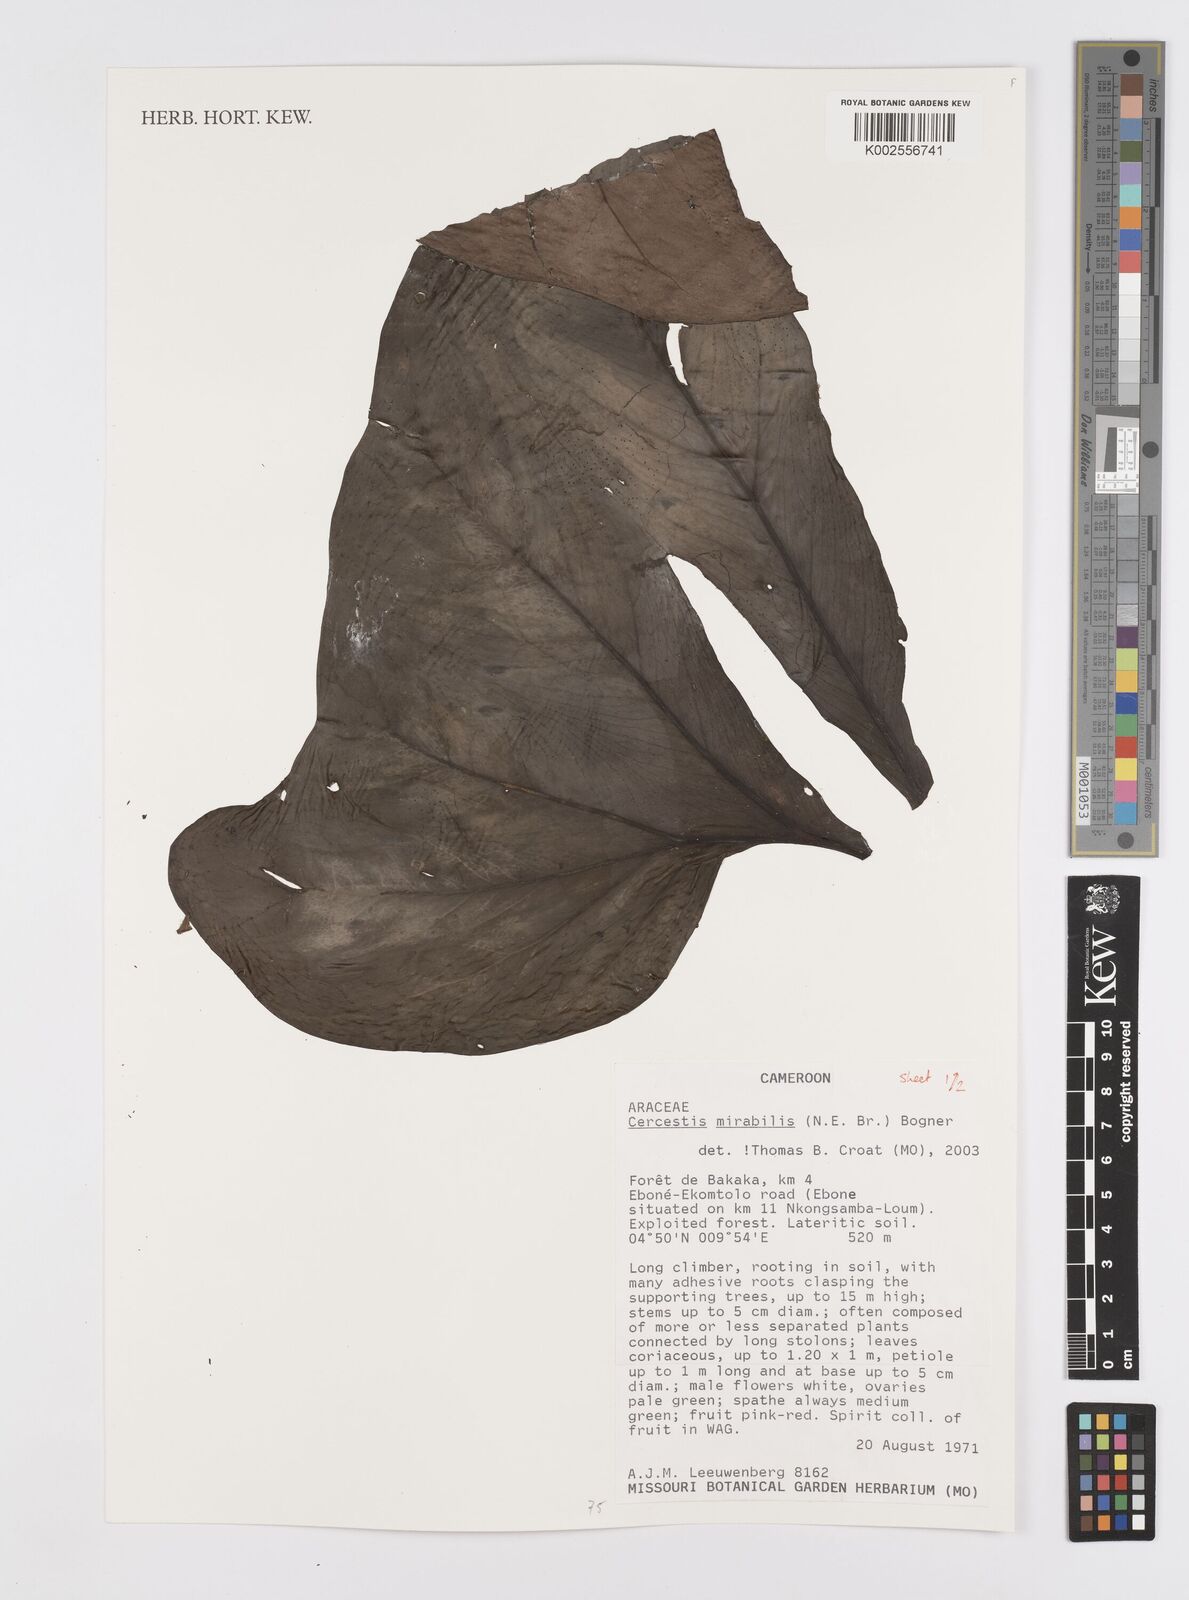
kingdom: Plantae
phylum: Tracheophyta
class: Liliopsida
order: Alismatales
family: Araceae
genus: Cercestis
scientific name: Cercestis mirabilis
